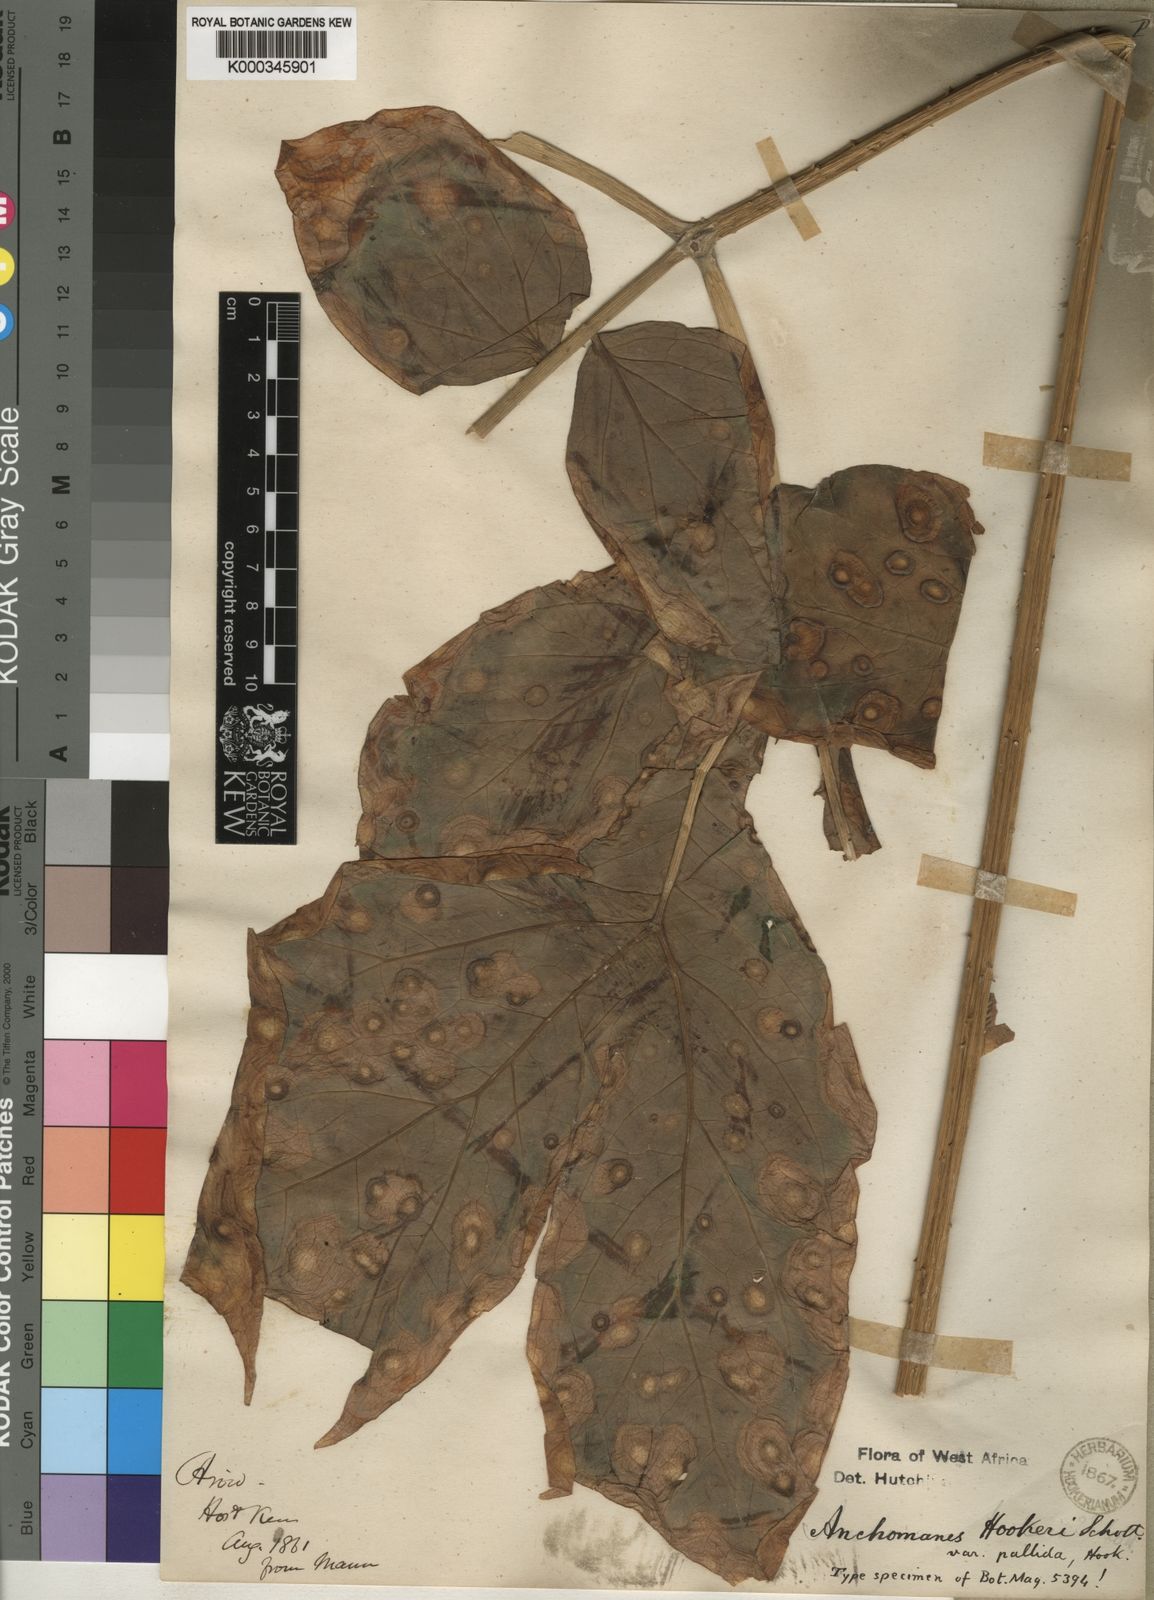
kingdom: Plantae
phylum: Tracheophyta
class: Liliopsida
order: Alismatales
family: Araceae
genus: Anchomanes
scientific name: Anchomanes difformis
